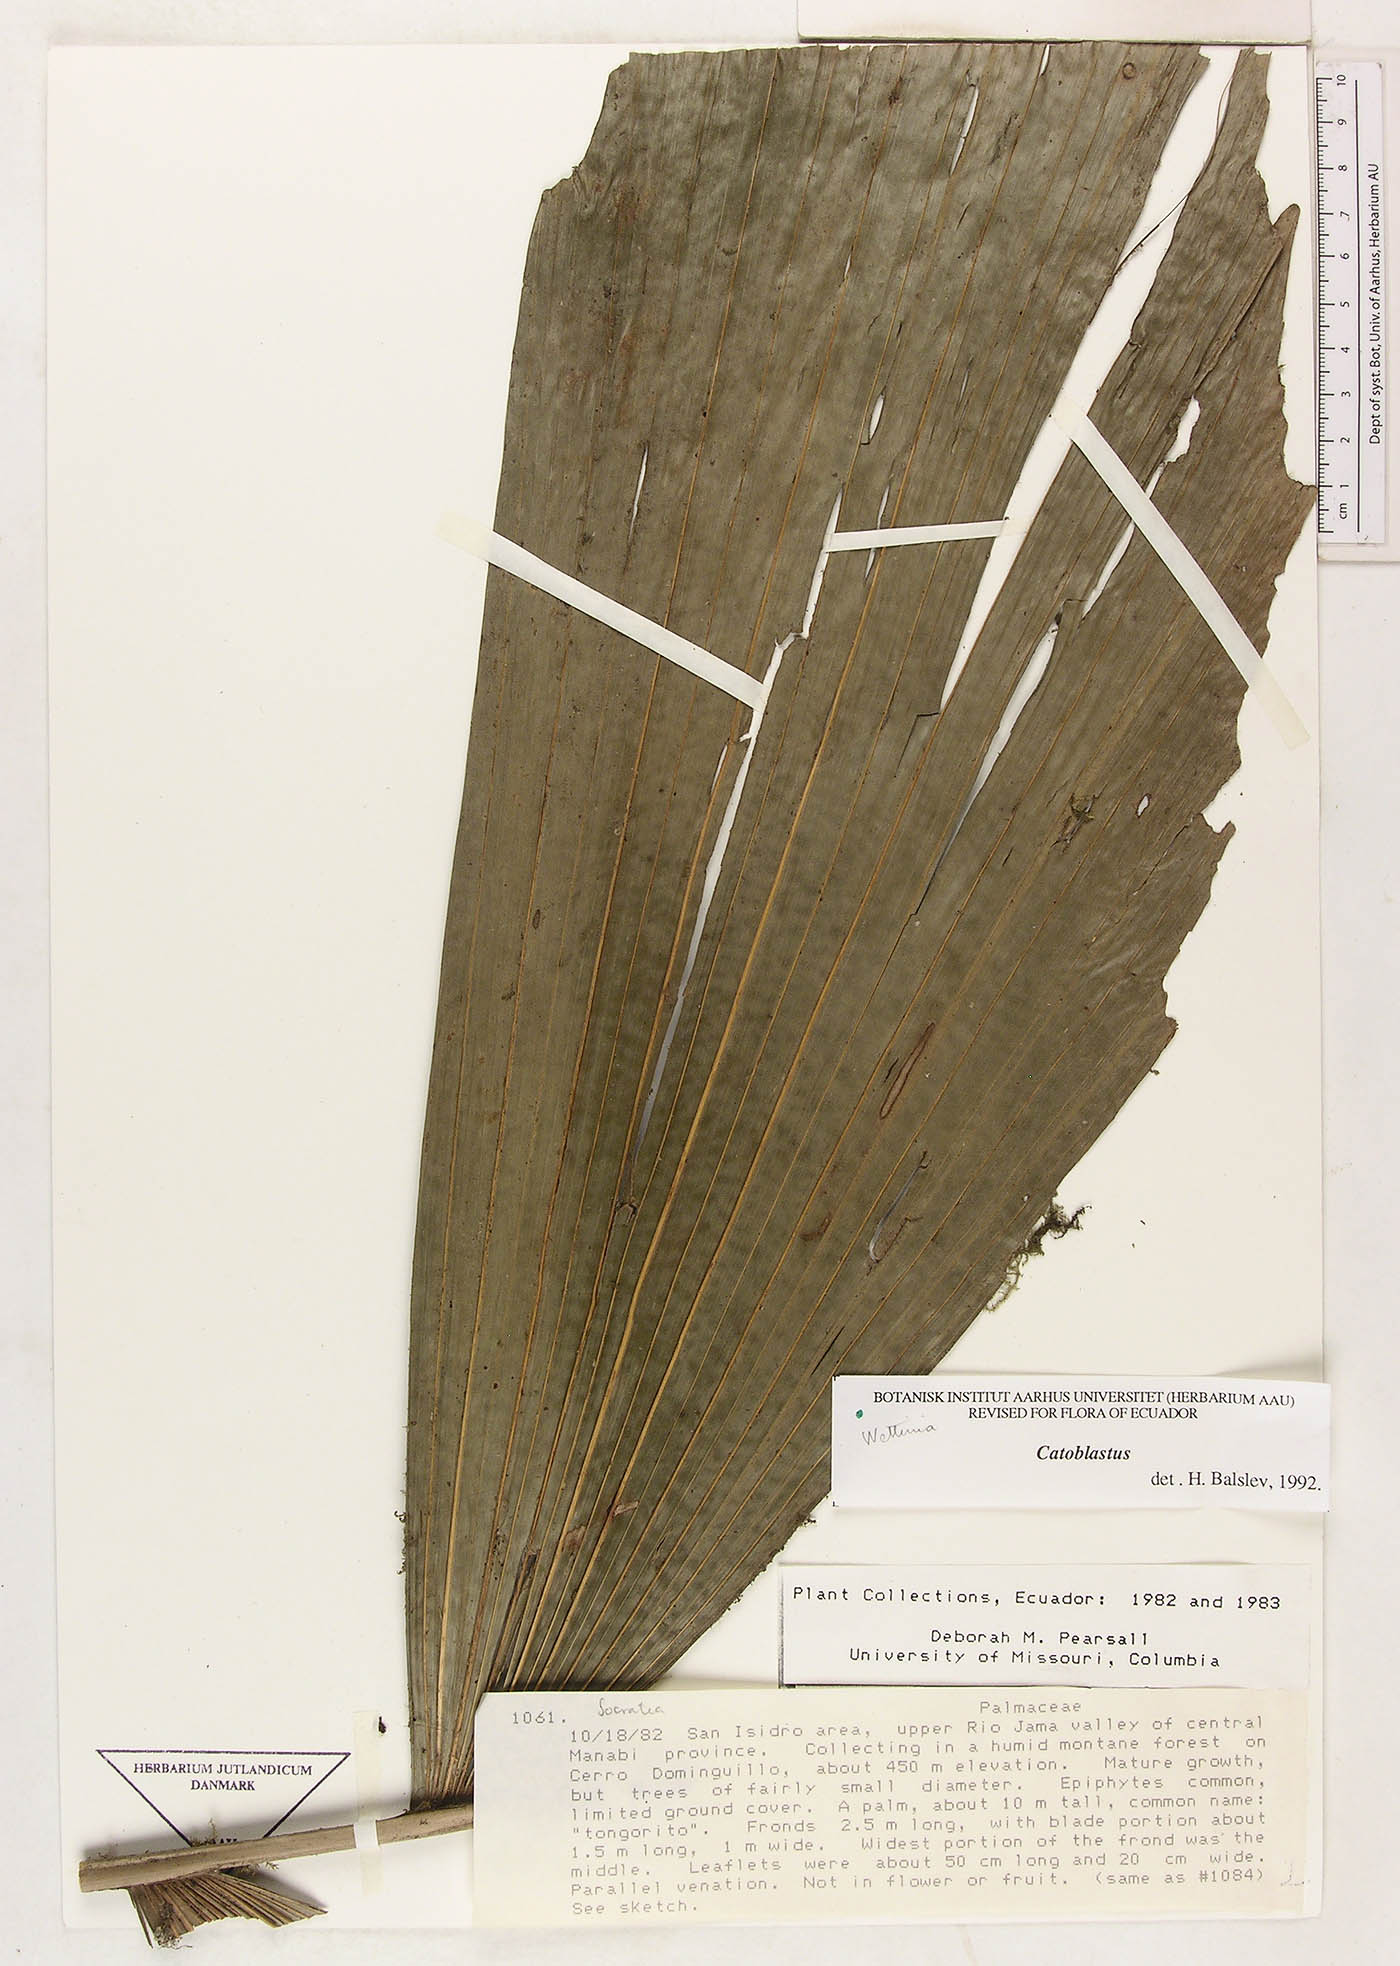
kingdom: Plantae
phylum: Tracheophyta
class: Liliopsida
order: Arecales
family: Arecaceae
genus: Wettinia
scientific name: Wettinia
